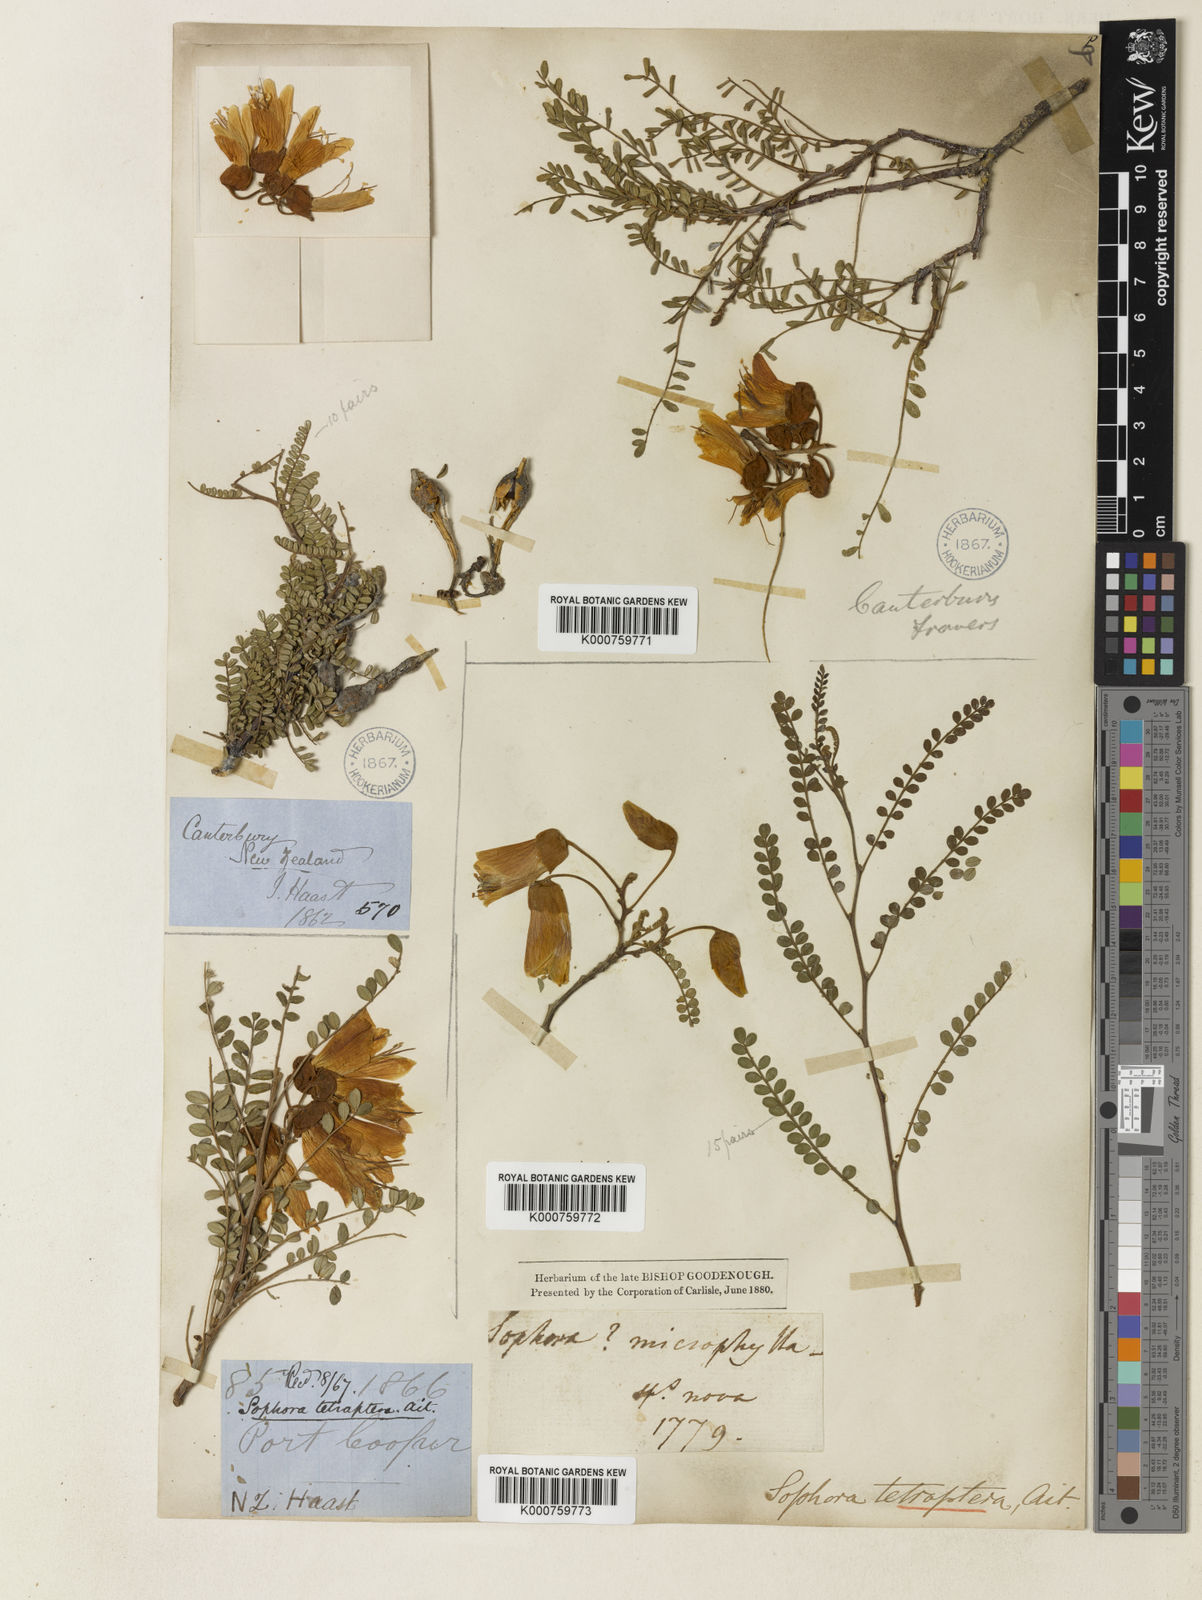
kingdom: Plantae
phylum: Tracheophyta
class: Magnoliopsida
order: Fabales
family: Fabaceae
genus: Sophora
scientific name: Sophora microphylla
